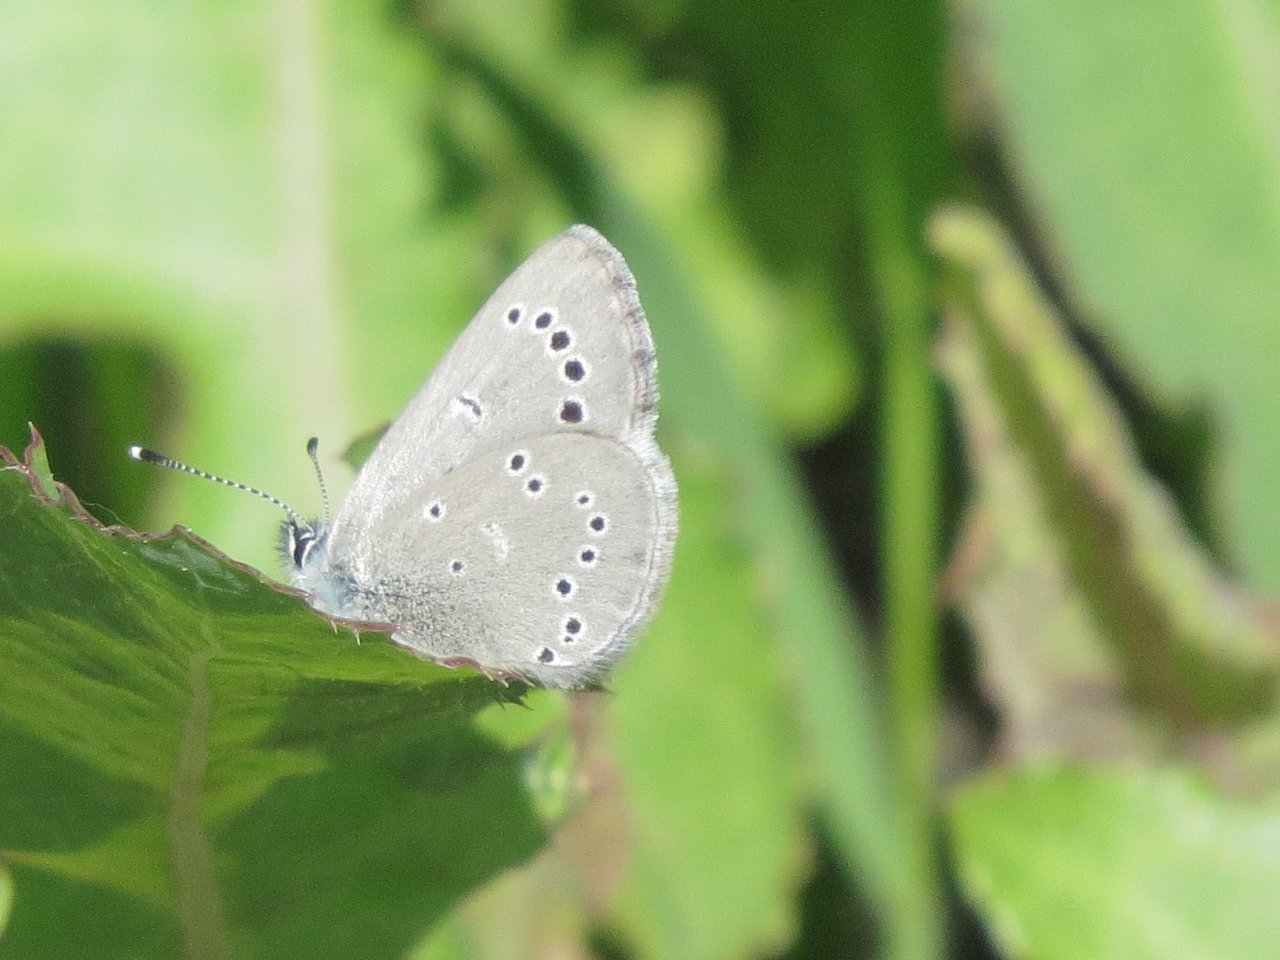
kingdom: Animalia
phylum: Arthropoda
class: Insecta
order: Lepidoptera
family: Lycaenidae
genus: Glaucopsyche
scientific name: Glaucopsyche lygdamus
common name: Silvery Blue
